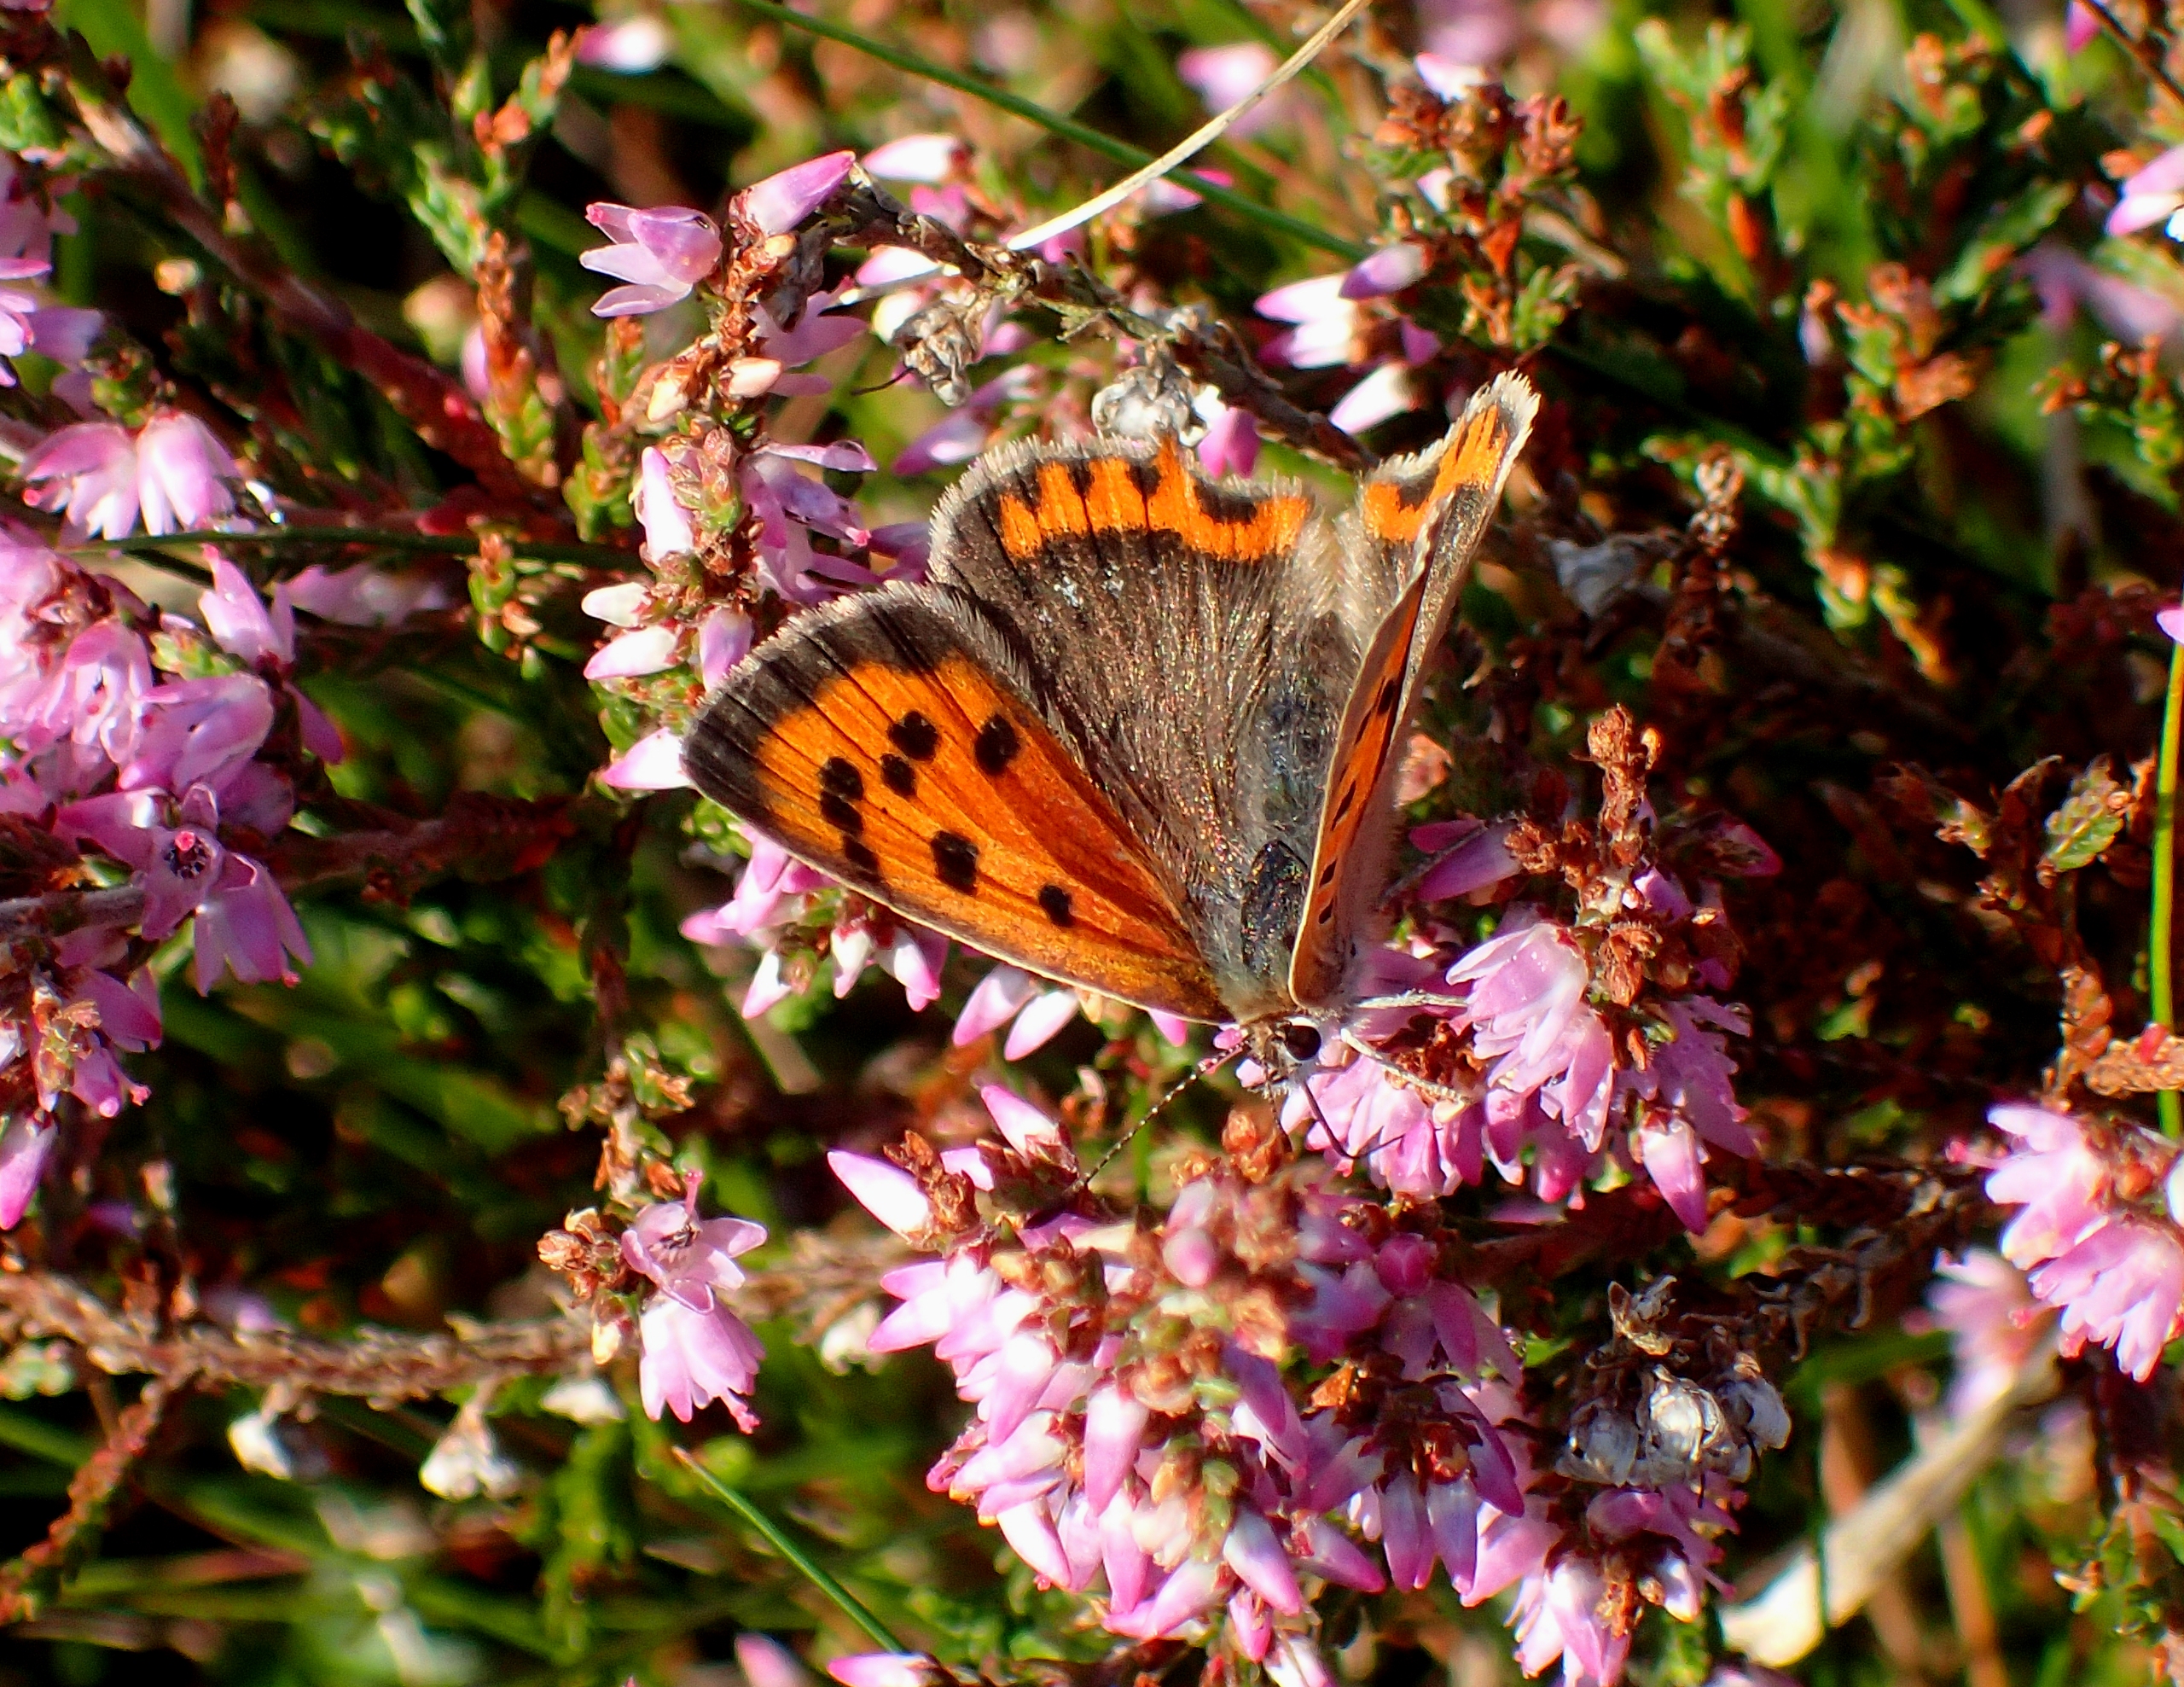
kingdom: Animalia
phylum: Arthropoda
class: Insecta
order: Lepidoptera
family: Lycaenidae
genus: Lycaena
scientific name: Lycaena phlaeas
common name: Lille ildfugl
